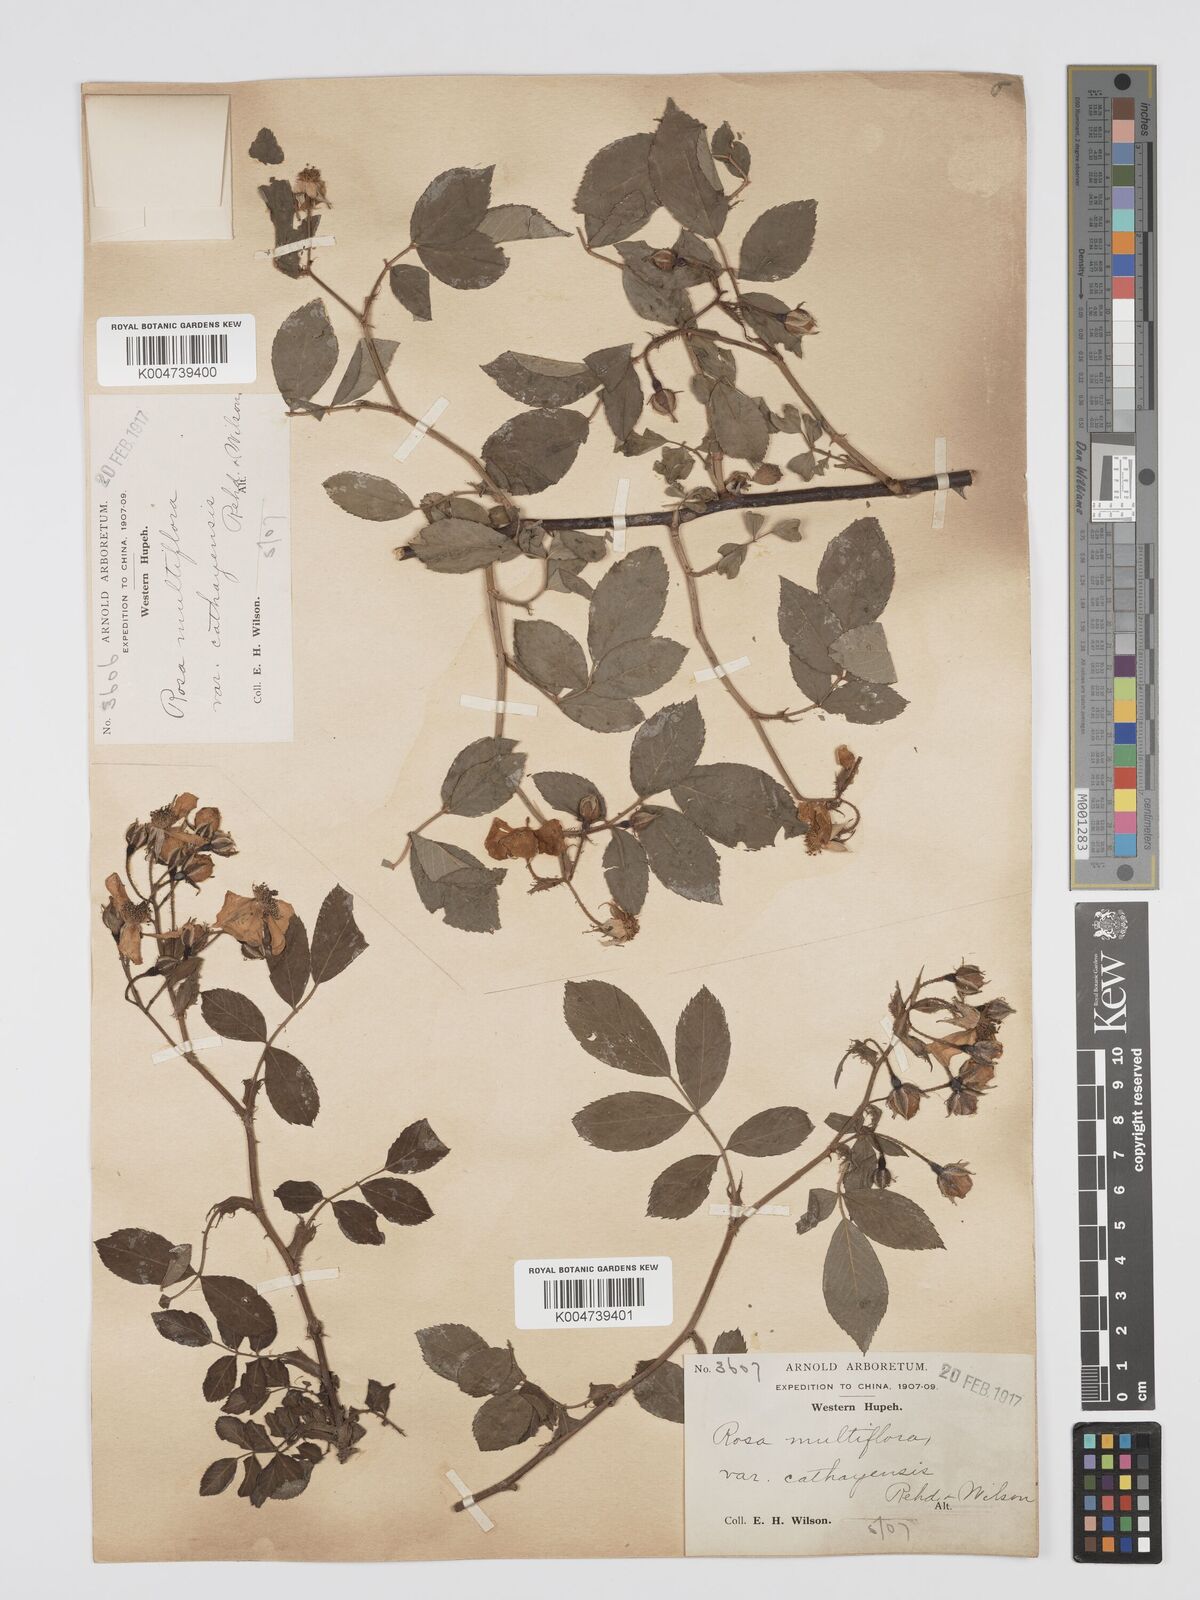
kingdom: Plantae
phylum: Tracheophyta
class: Magnoliopsida
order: Rosales
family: Rosaceae
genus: Rosa
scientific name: Rosa
